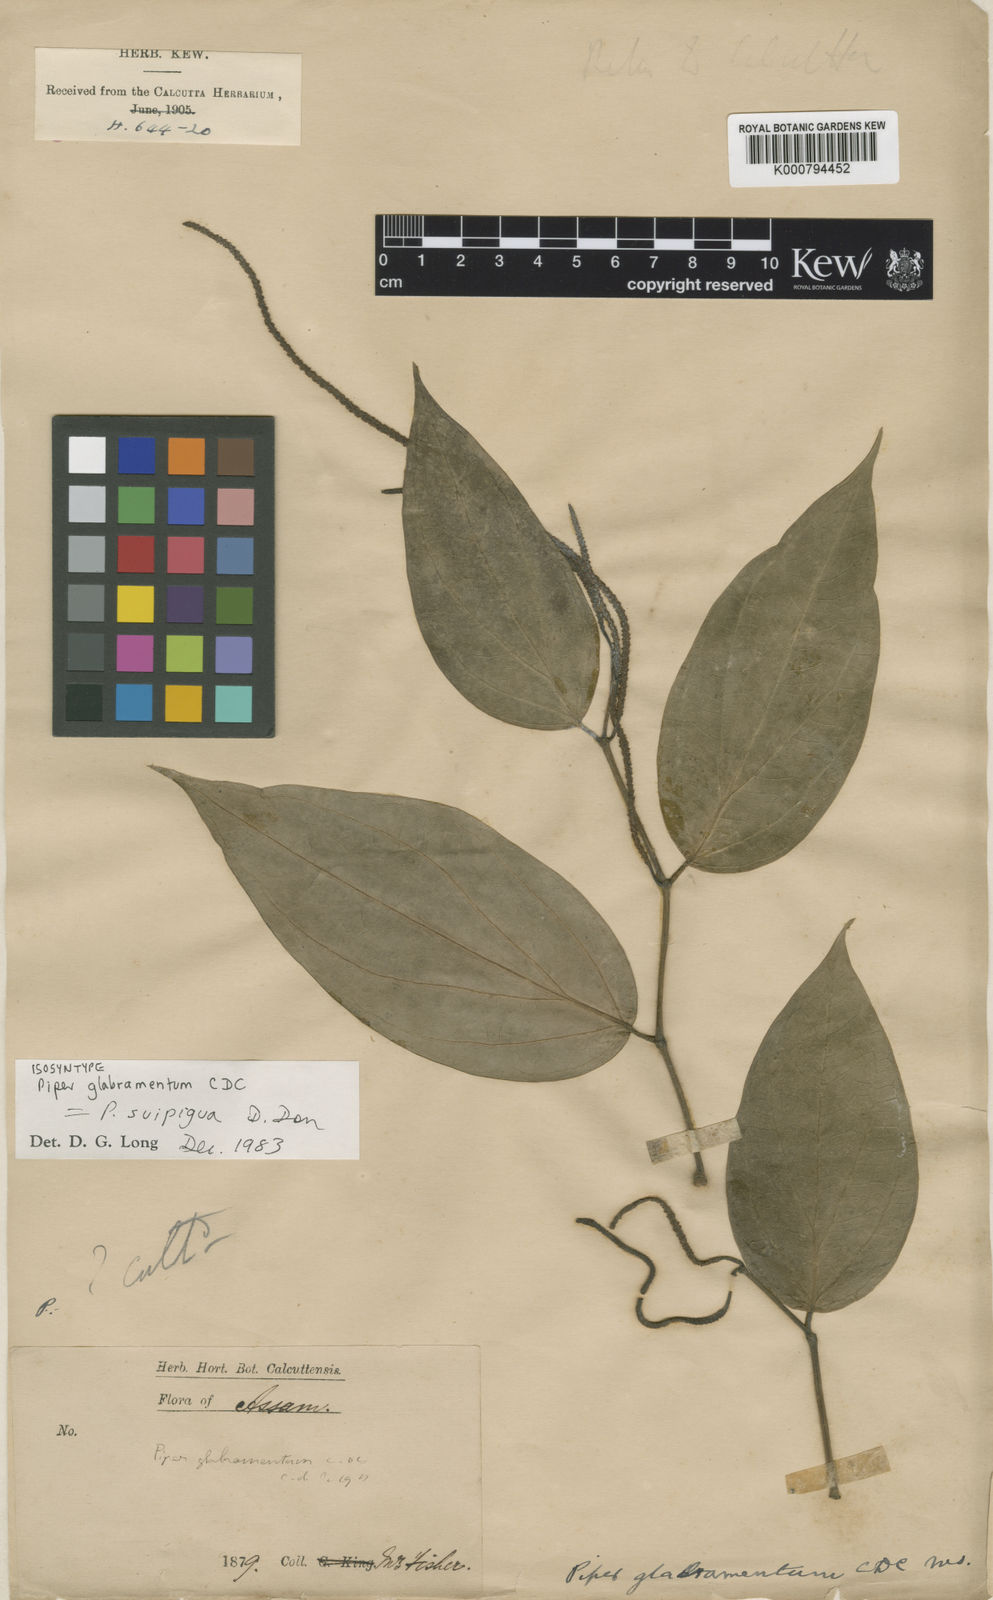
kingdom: Plantae
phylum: Tracheophyta
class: Magnoliopsida
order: Piperales
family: Piperaceae
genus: Piper
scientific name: Piper suipigua
